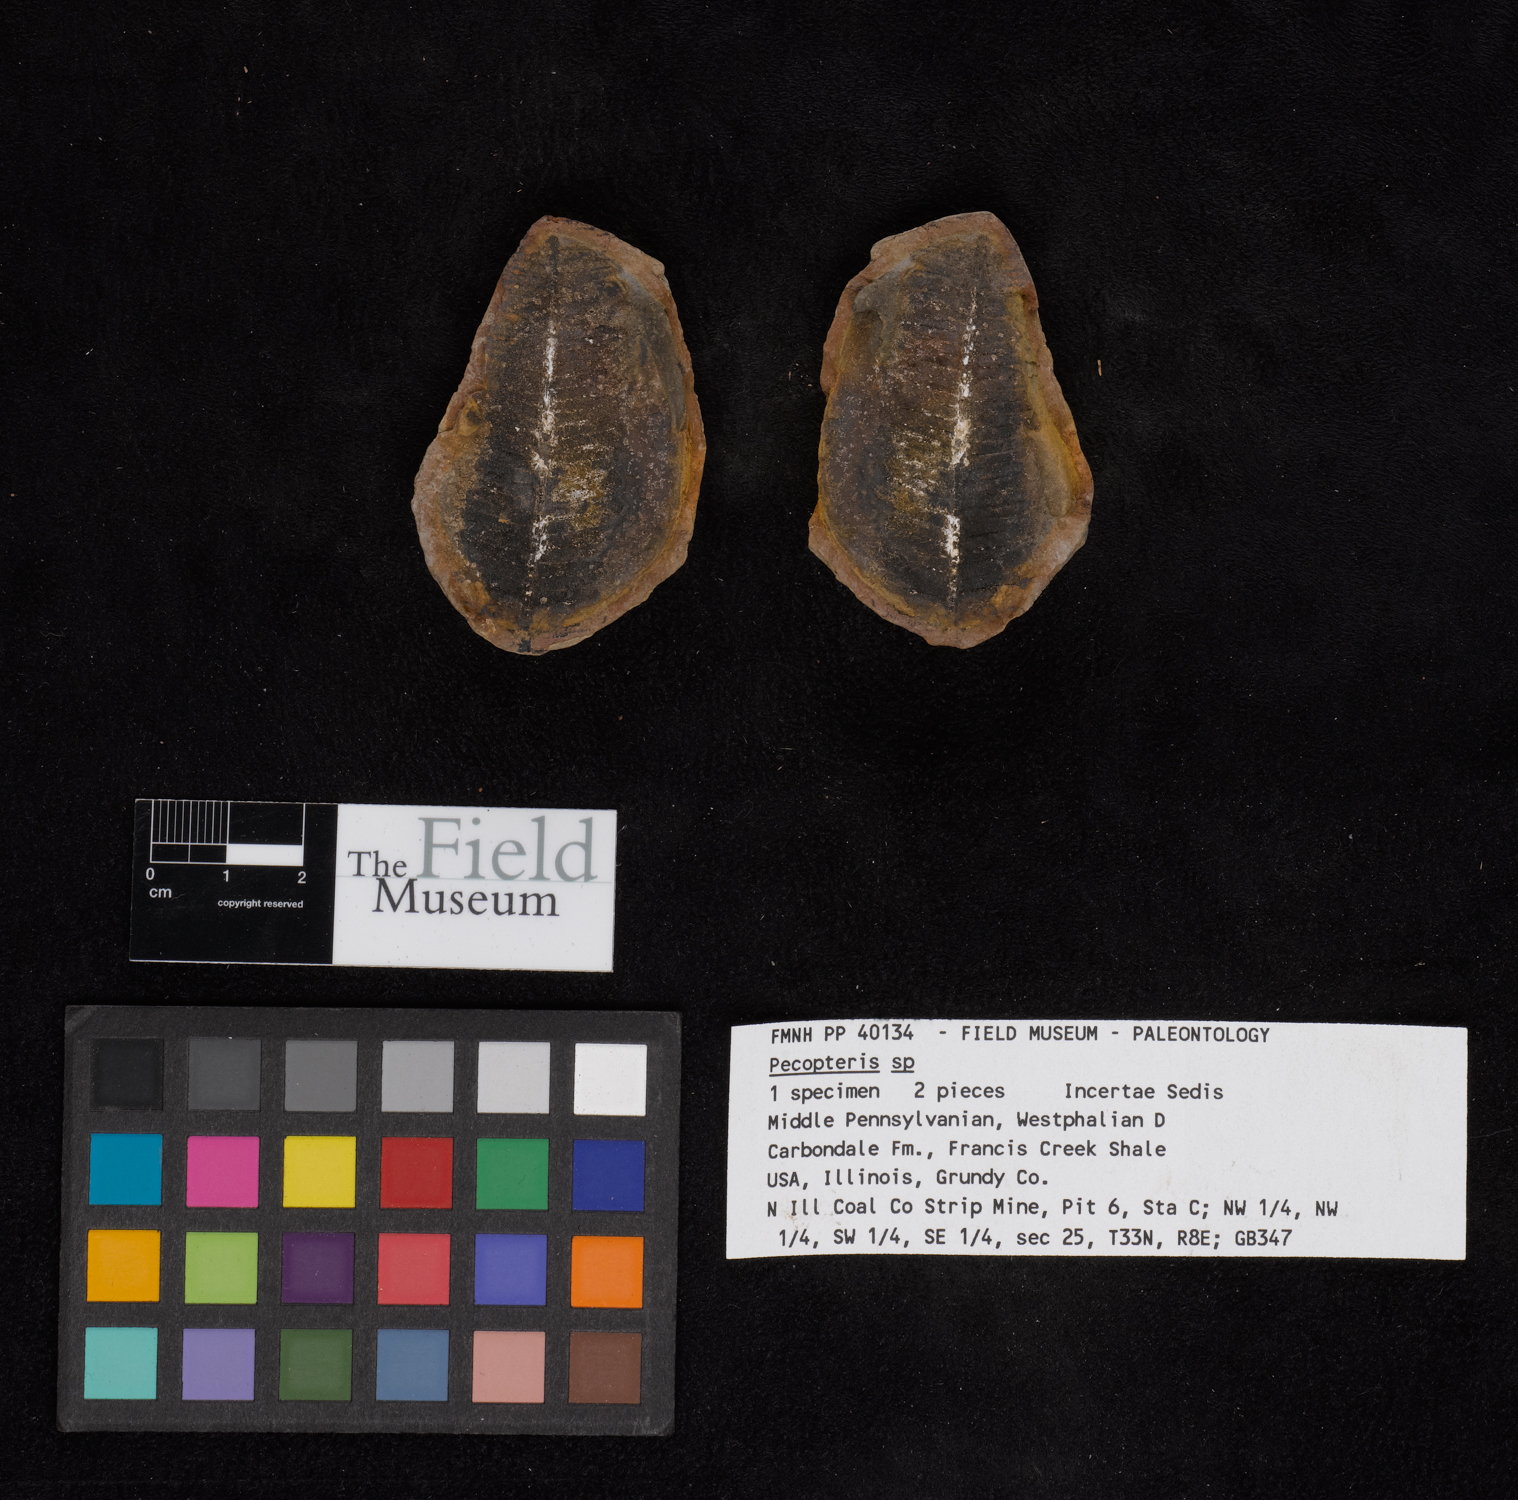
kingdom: Plantae
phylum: Tracheophyta
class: Polypodiopsida
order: Marattiales
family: Asterothecaceae
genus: Pecopteris
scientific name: Pecopteris
